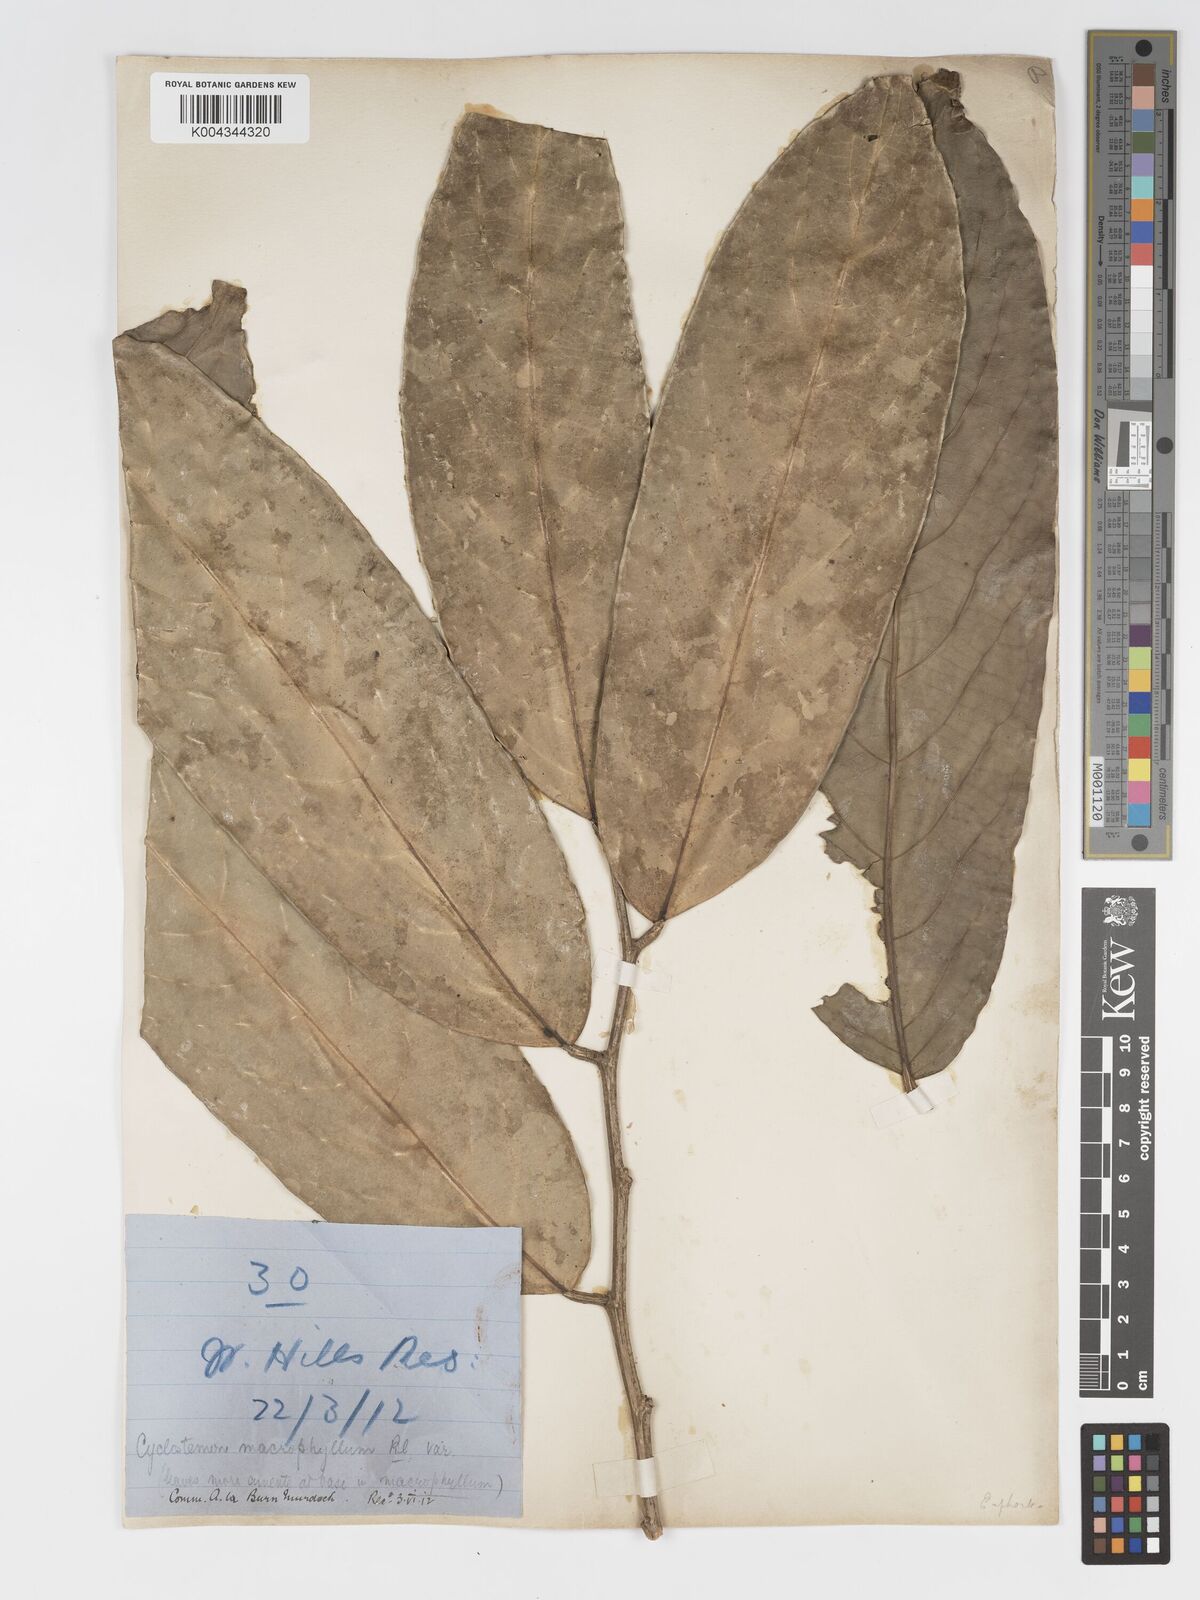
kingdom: Plantae
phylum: Tracheophyta
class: Magnoliopsida
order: Malpighiales
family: Putranjivaceae
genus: Drypetes
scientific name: Drypetes longifolia
